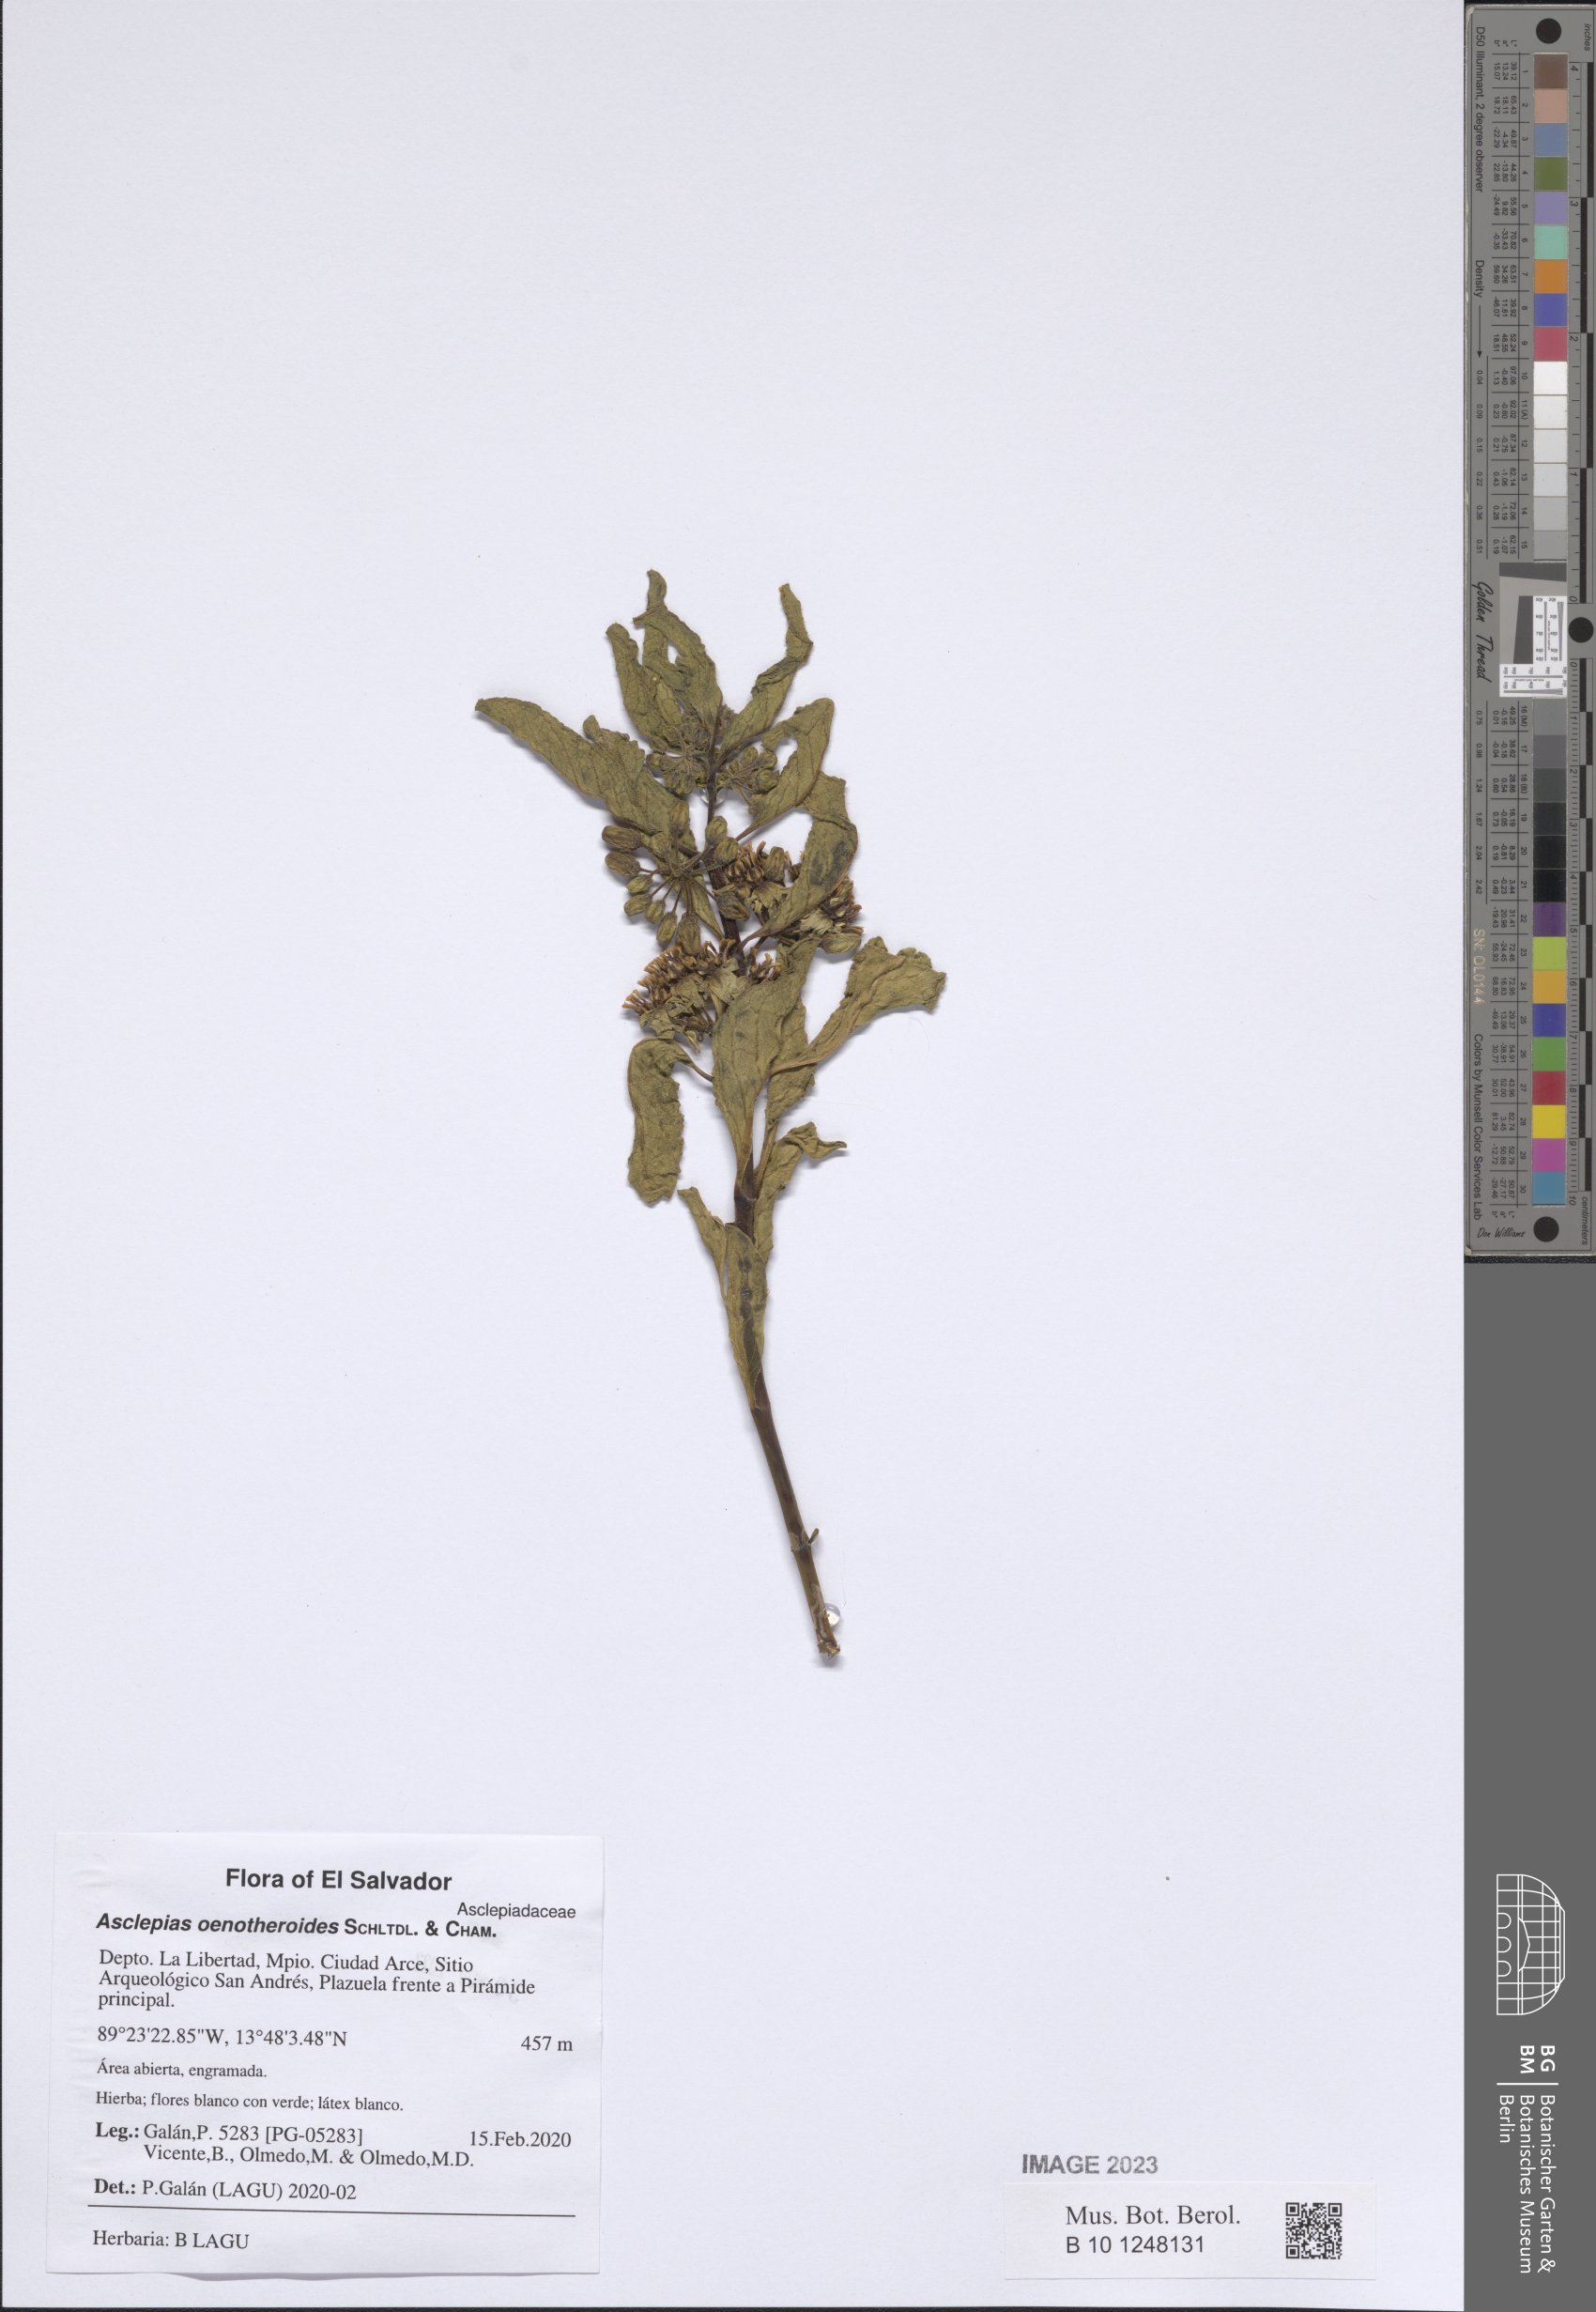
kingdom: Plantae
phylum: Tracheophyta
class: Magnoliopsida
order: Gentianales
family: Apocynaceae
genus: Asclepias
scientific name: Asclepias oenotheroides
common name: Zizotes milkweed
